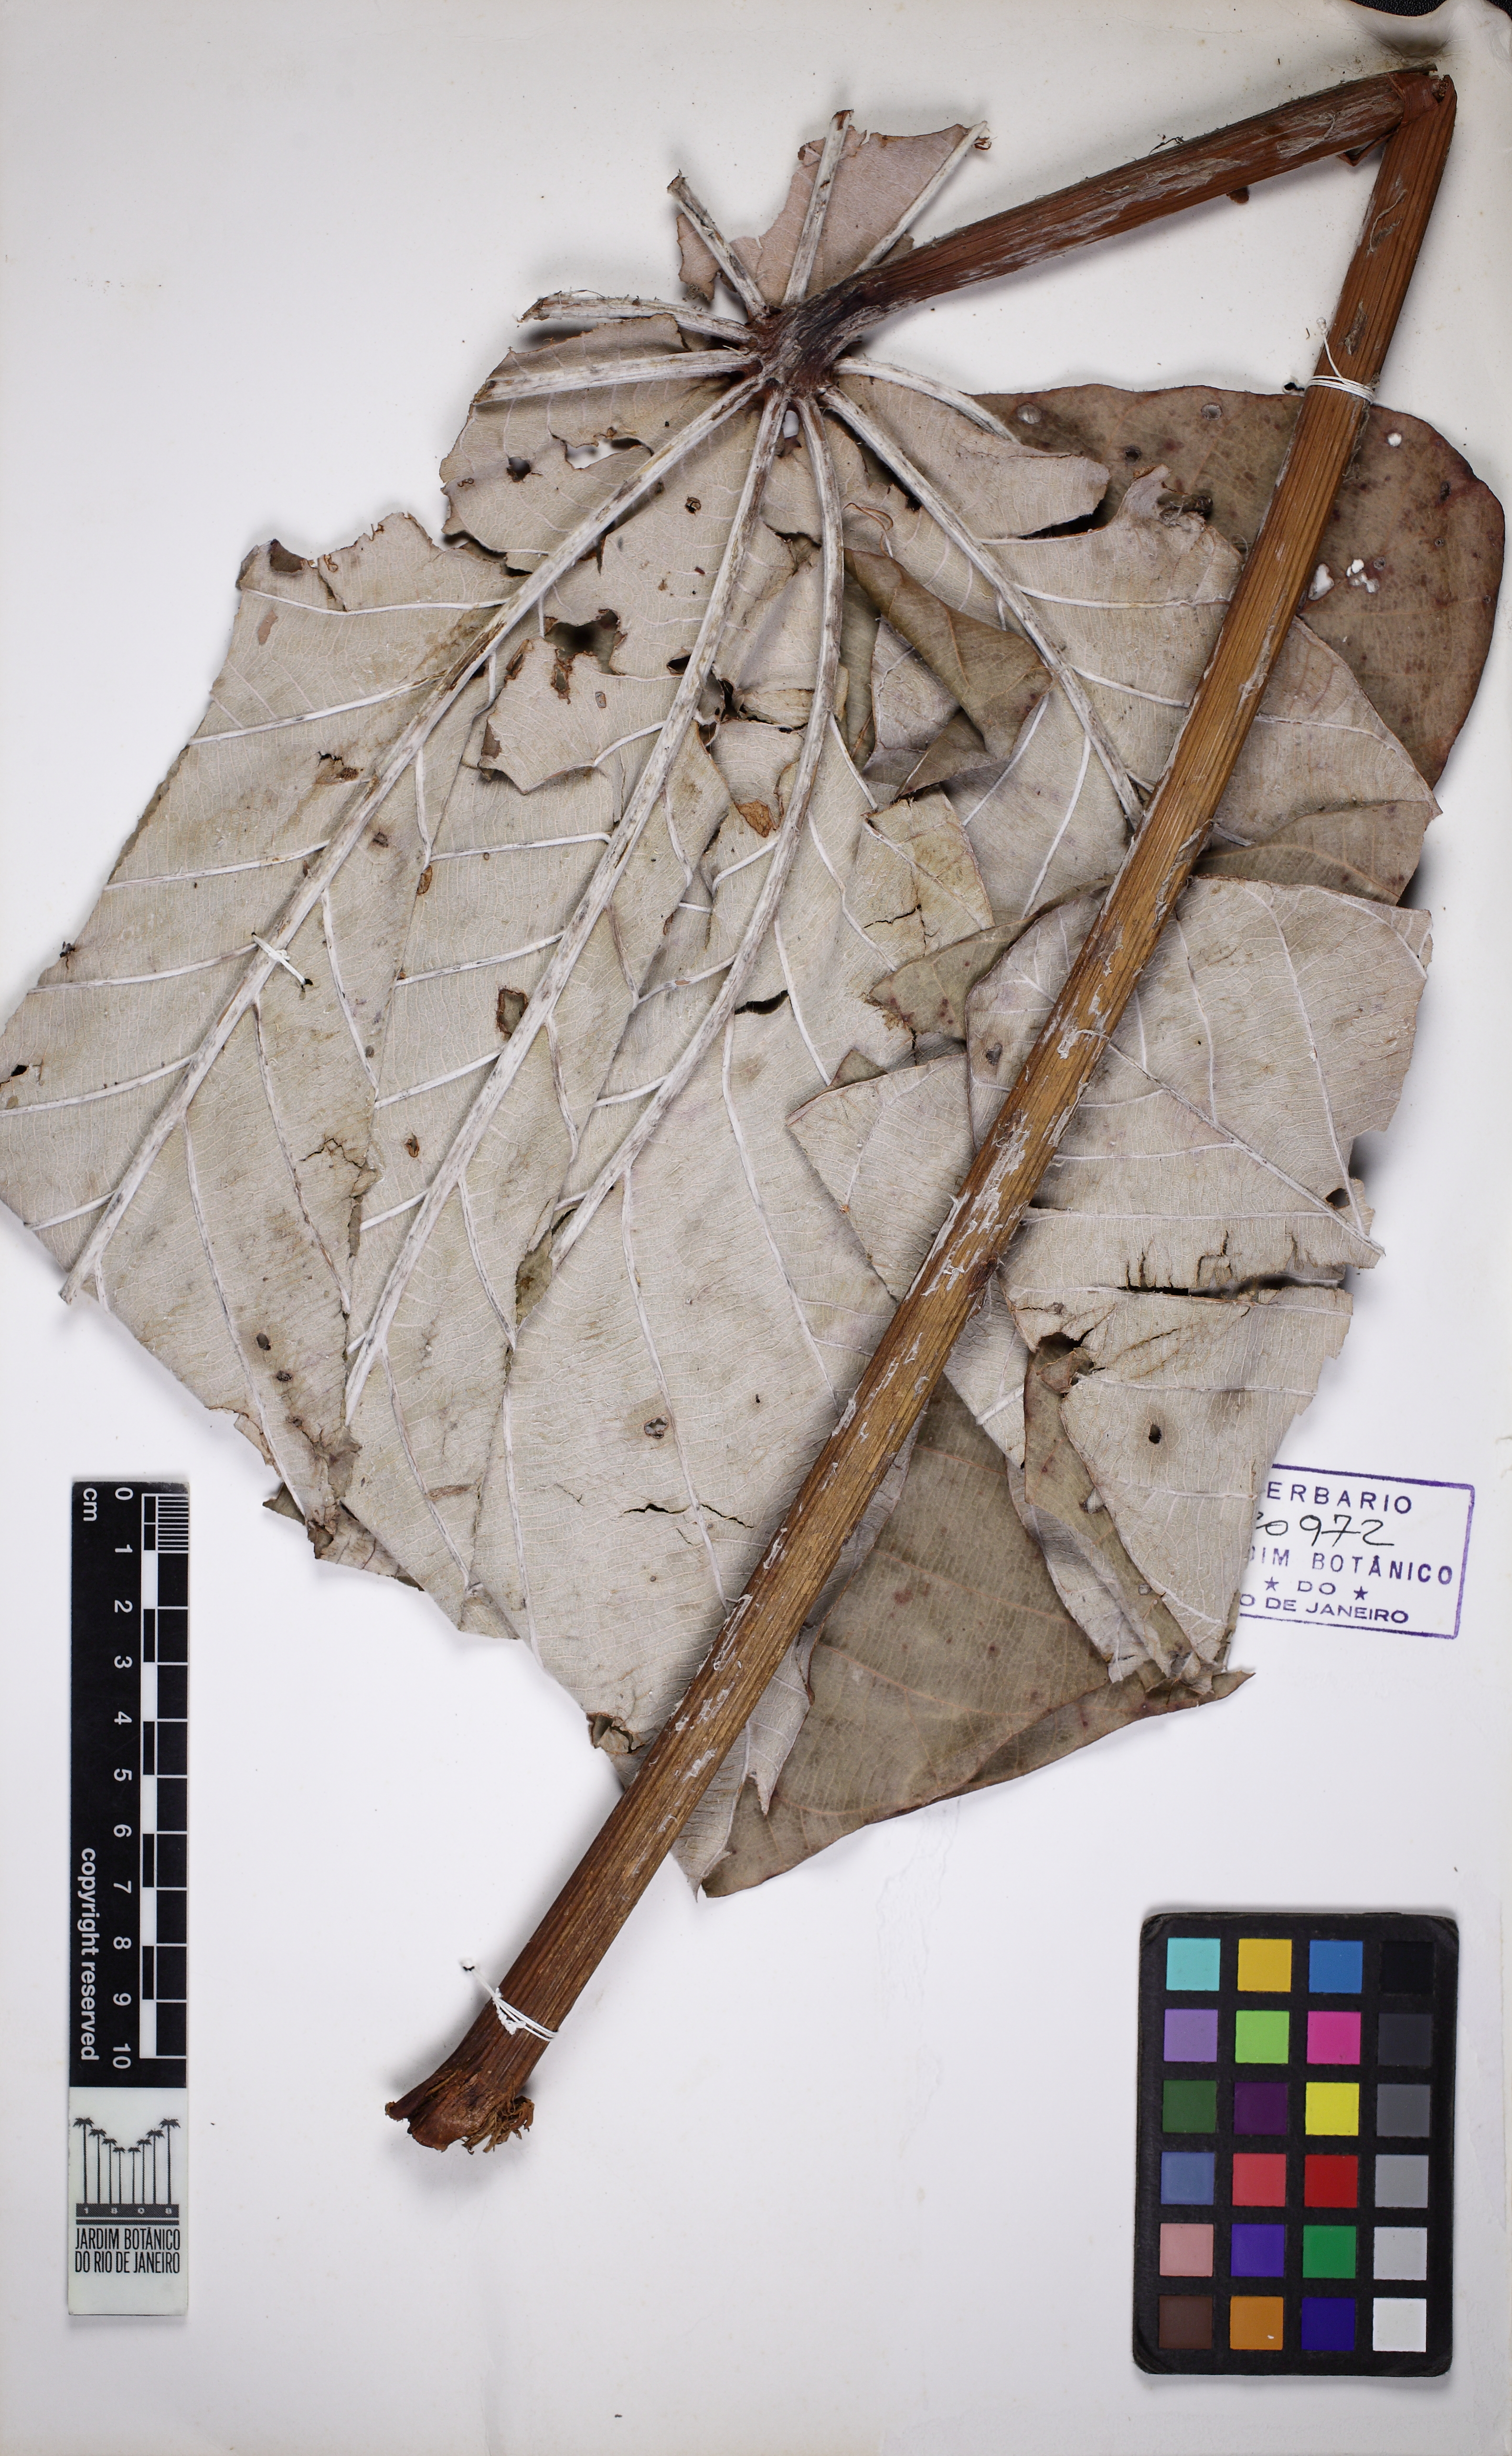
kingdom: Plantae
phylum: Tracheophyta
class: Magnoliopsida
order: Rosales
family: Urticaceae
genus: Cecropia
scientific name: Cecropia hololeuca
